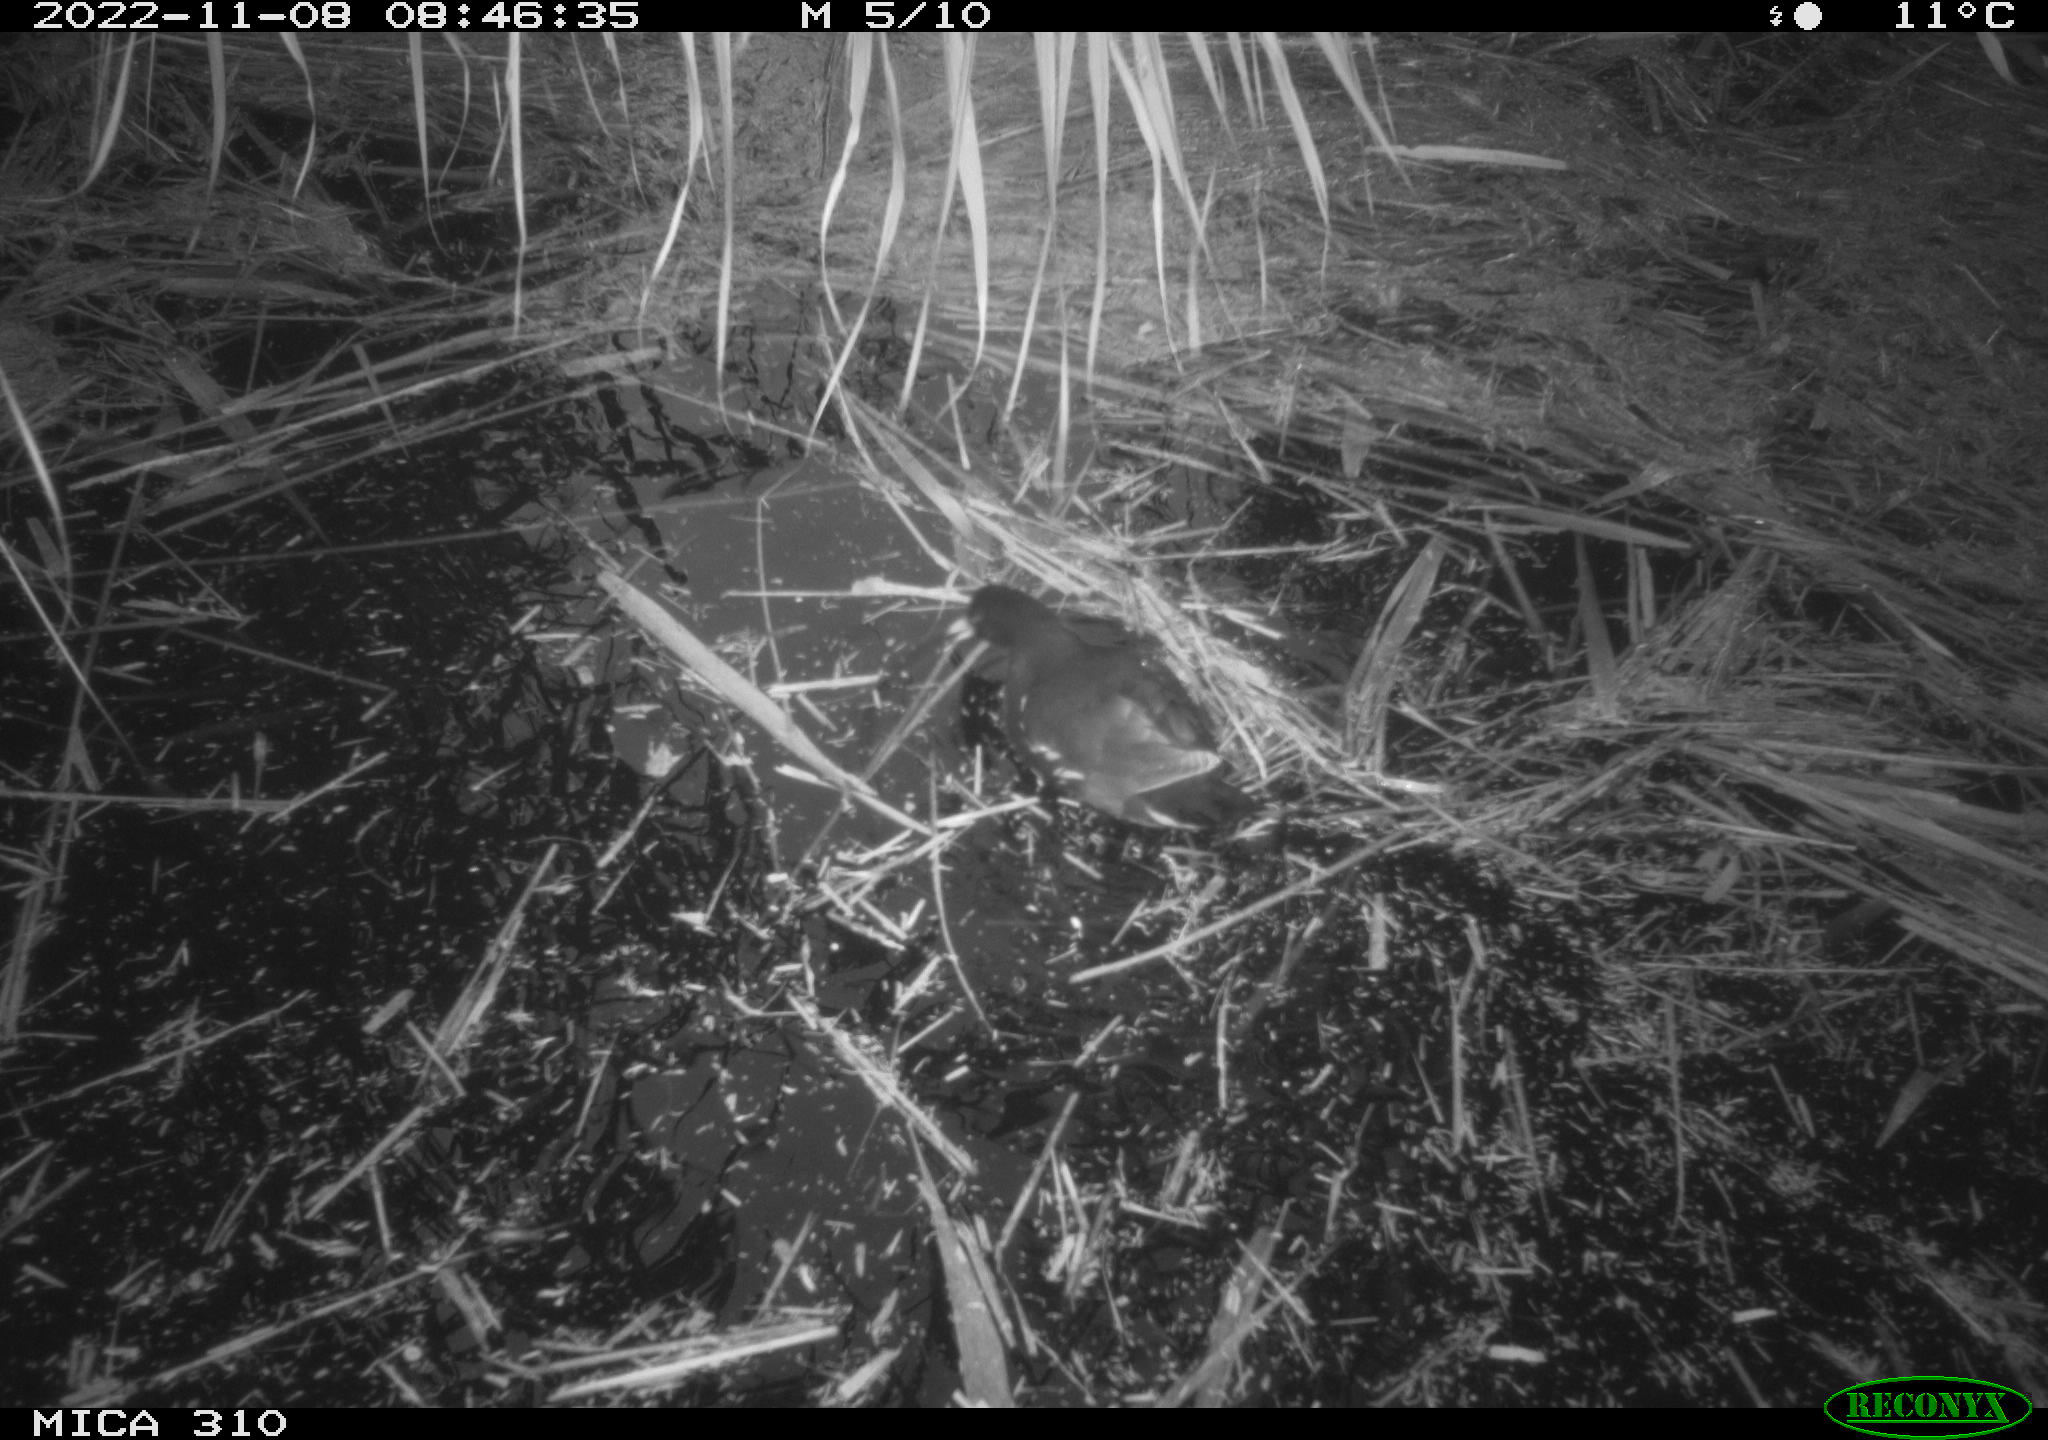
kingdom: Animalia
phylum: Chordata
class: Aves
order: Gruiformes
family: Rallidae
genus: Gallinula
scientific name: Gallinula chloropus
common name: Common moorhen
